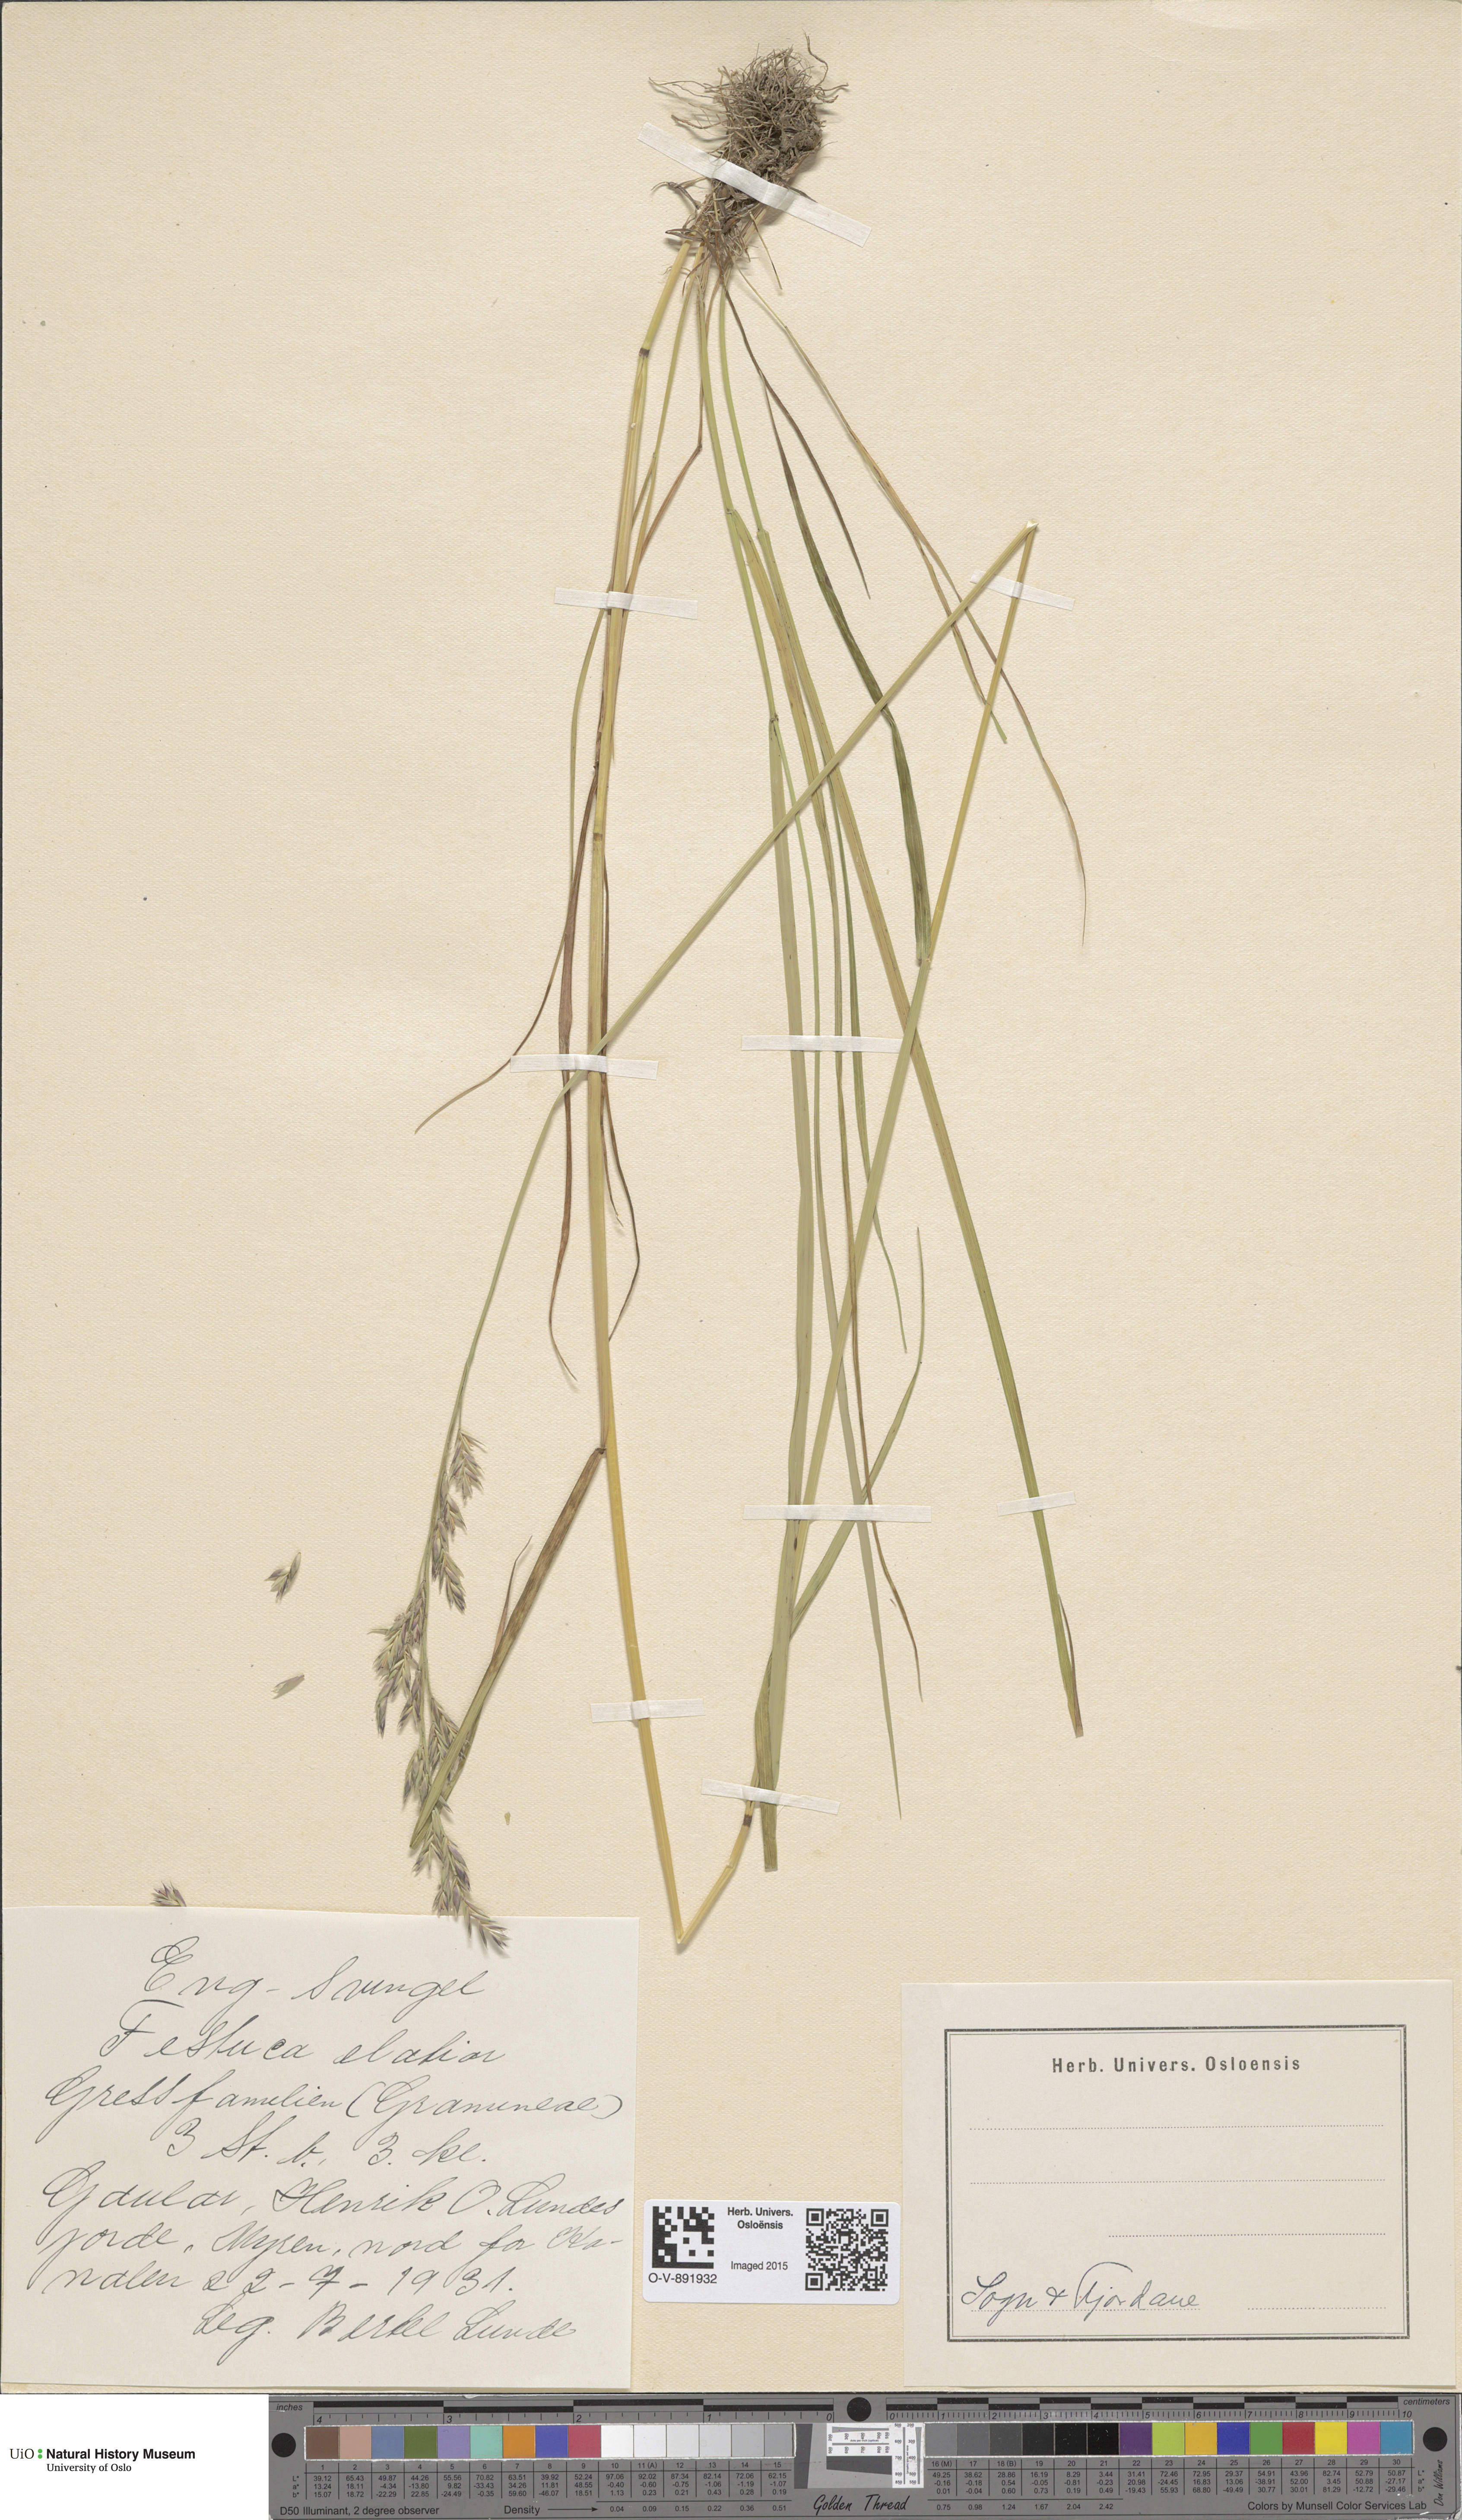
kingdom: Plantae
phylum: Tracheophyta
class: Liliopsida
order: Poales
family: Poaceae
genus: Lolium
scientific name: Lolium arundinaceum
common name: Reed fescue
